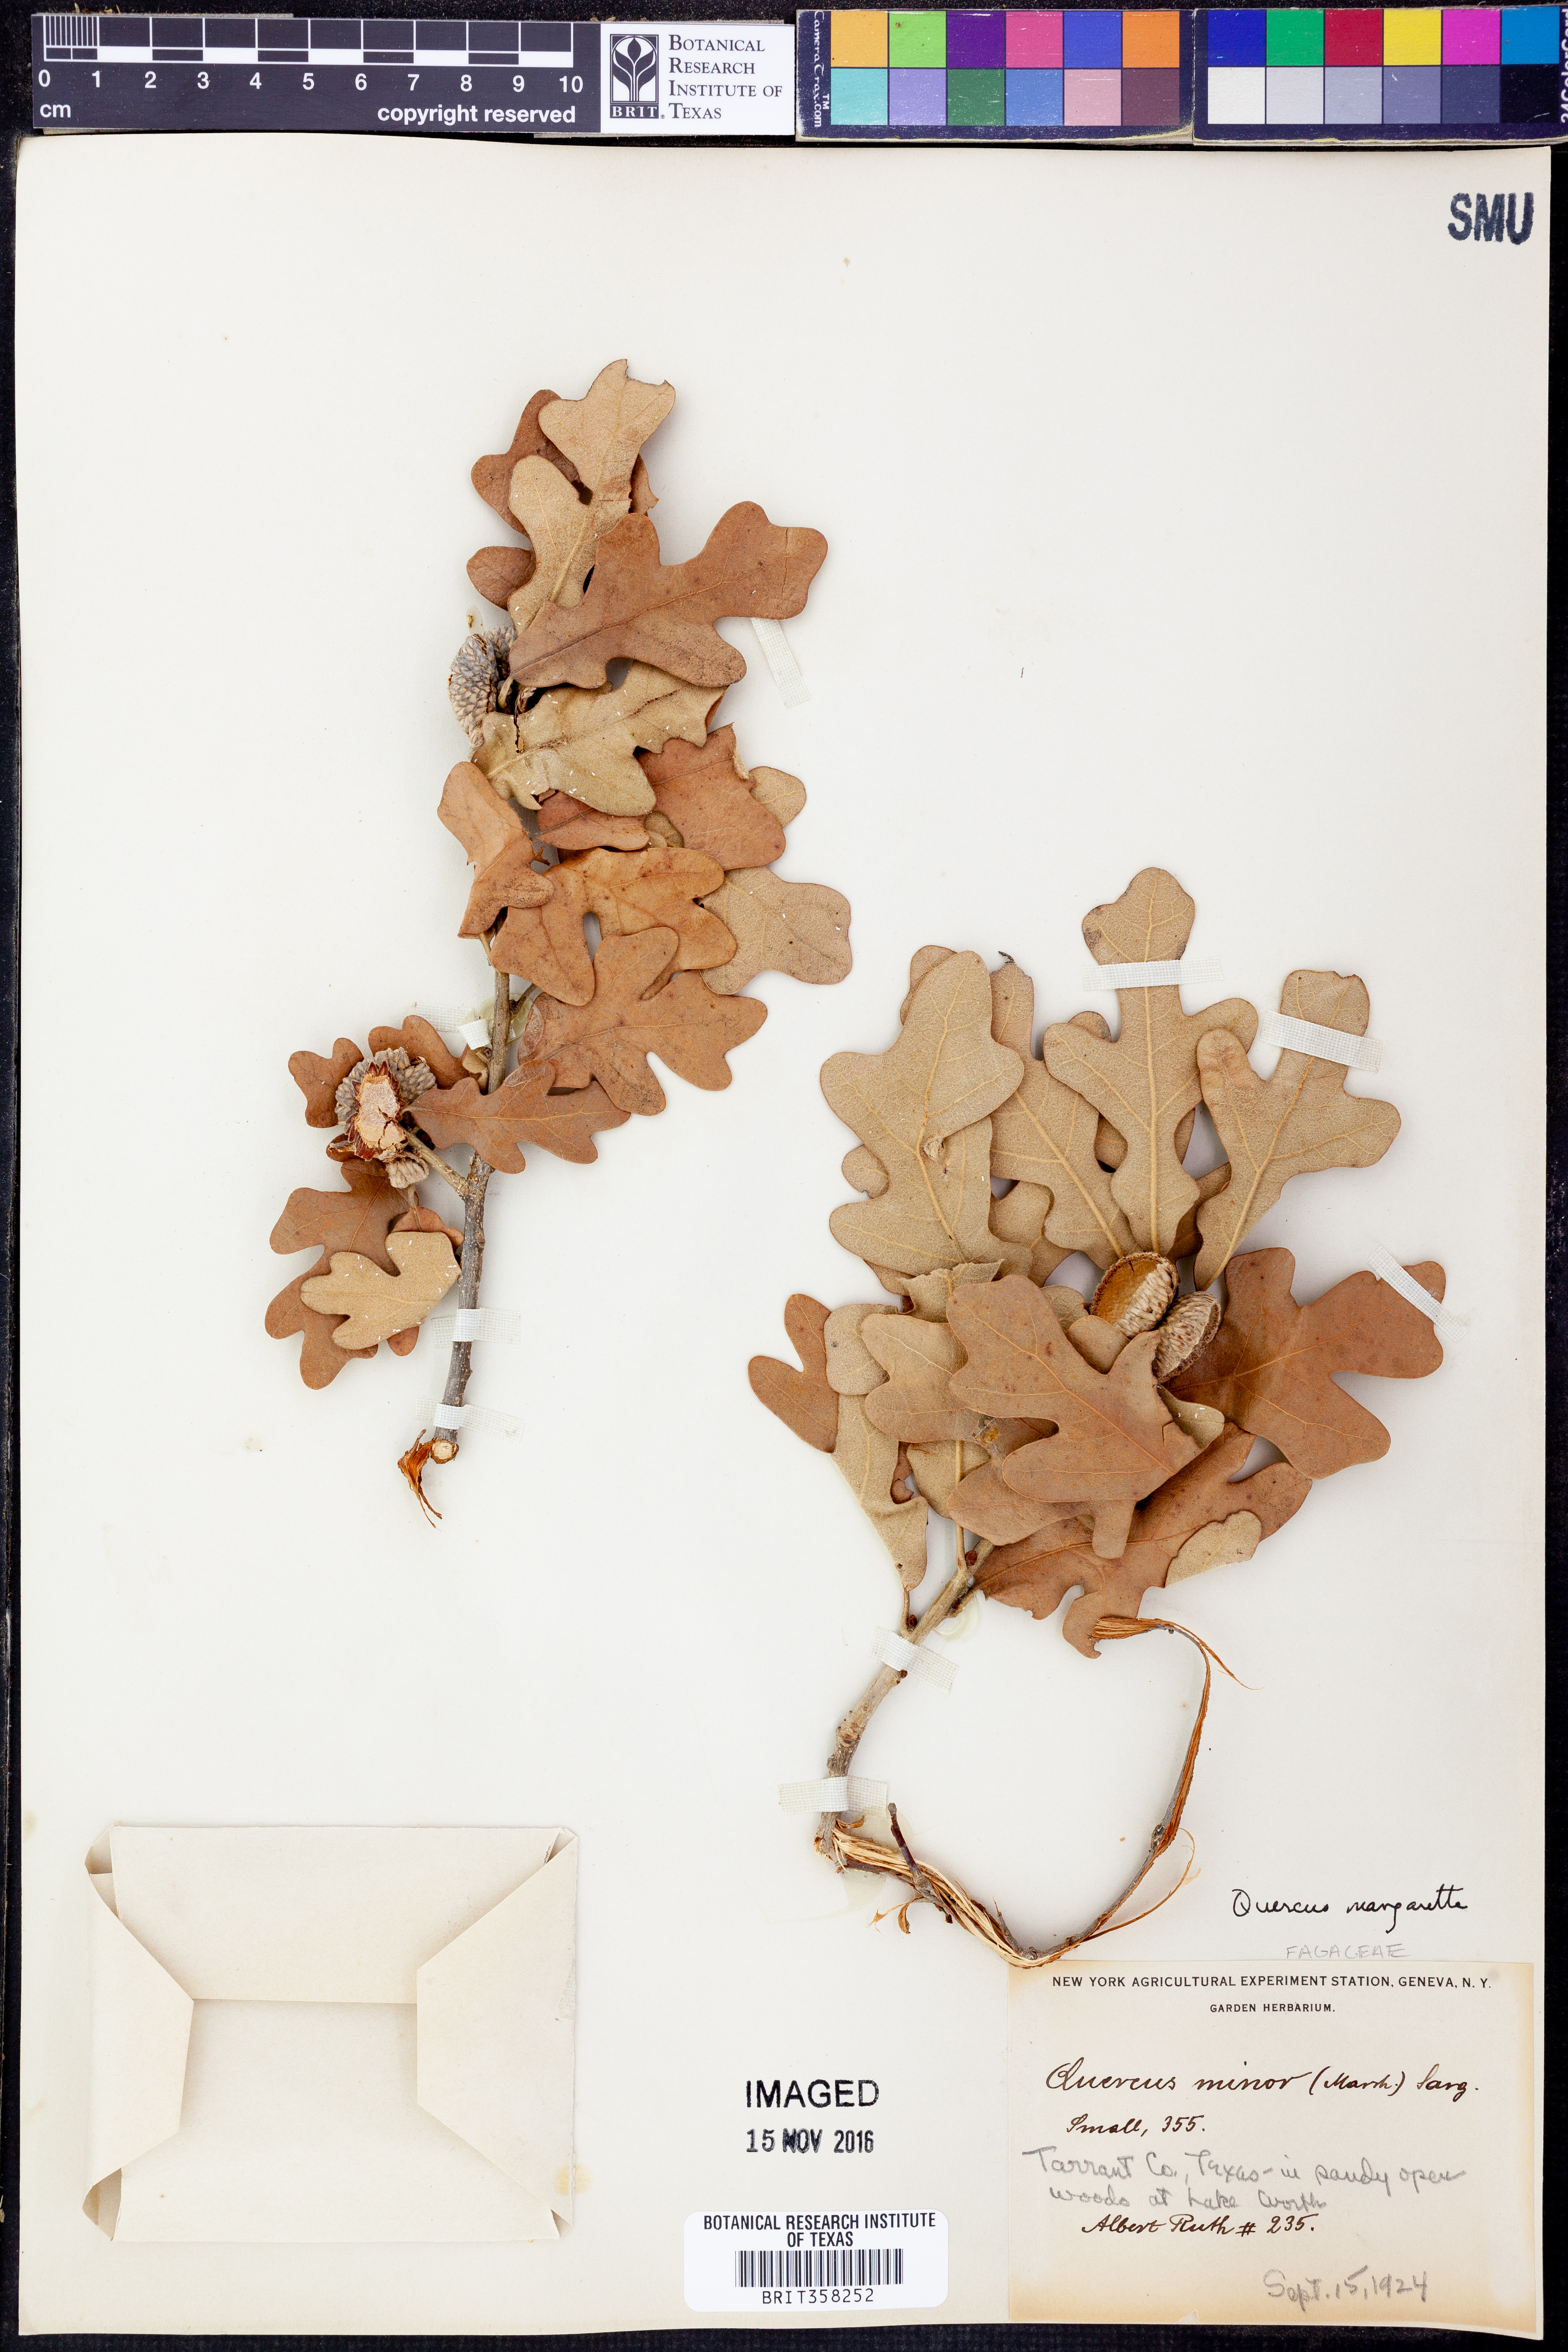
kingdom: Plantae
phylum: Tracheophyta
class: Magnoliopsida
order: Fagales
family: Fagaceae
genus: Quercus
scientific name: Quercus margaretta
